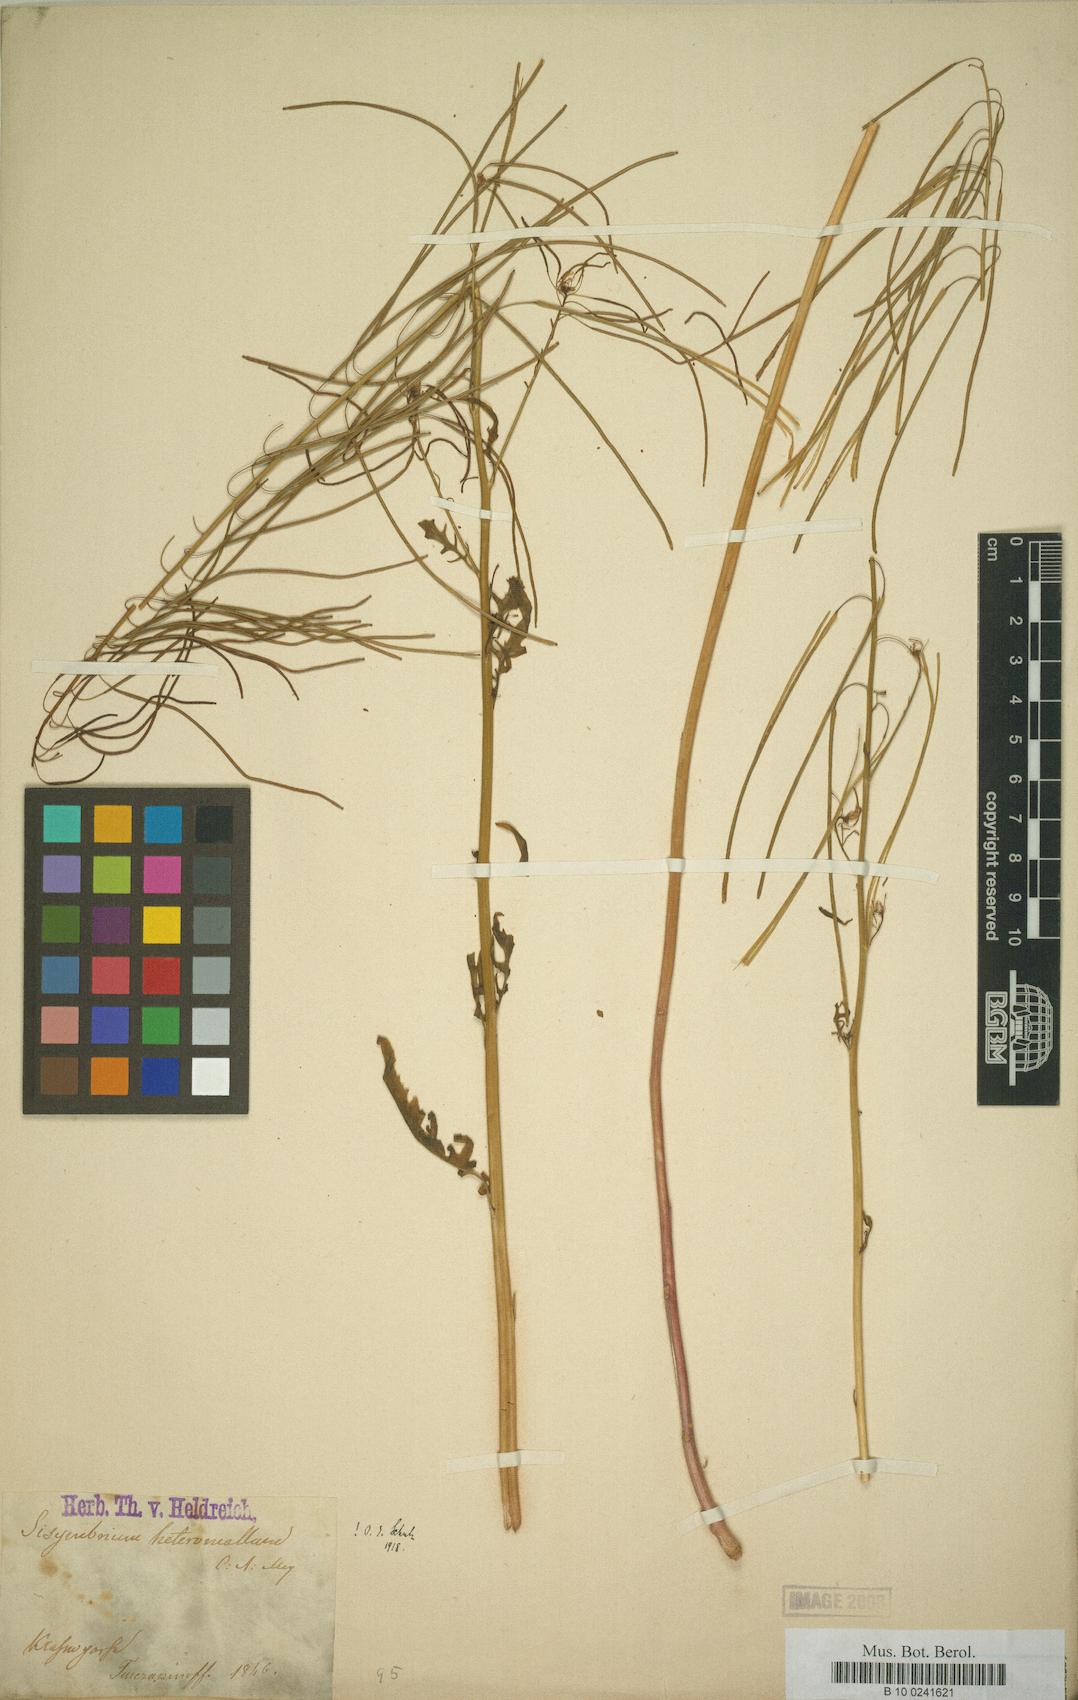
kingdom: Plantae
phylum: Tracheophyta
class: Magnoliopsida
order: Brassicales
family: Brassicaceae
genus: Sisymbrium
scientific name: Sisymbrium heteromallum
